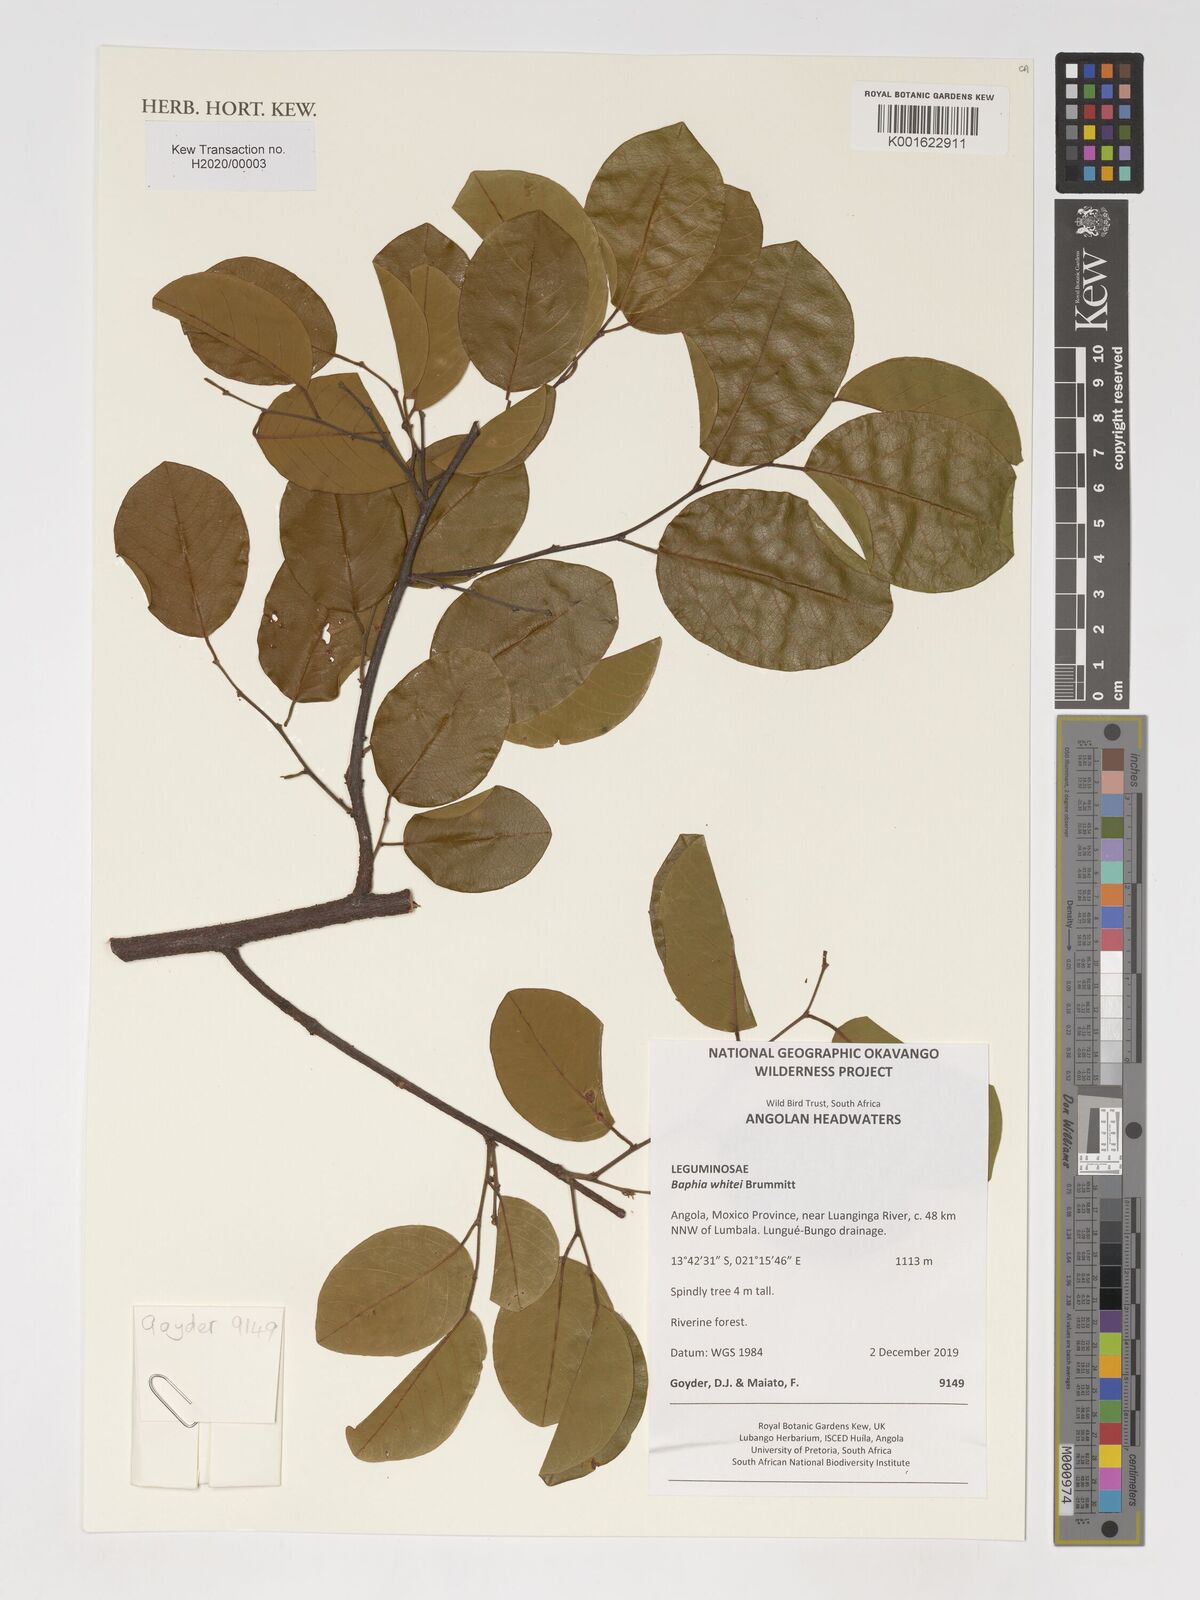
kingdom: Plantae
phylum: Tracheophyta
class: Magnoliopsida
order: Fabales
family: Fabaceae
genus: Baphia
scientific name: Baphia massaiensis
